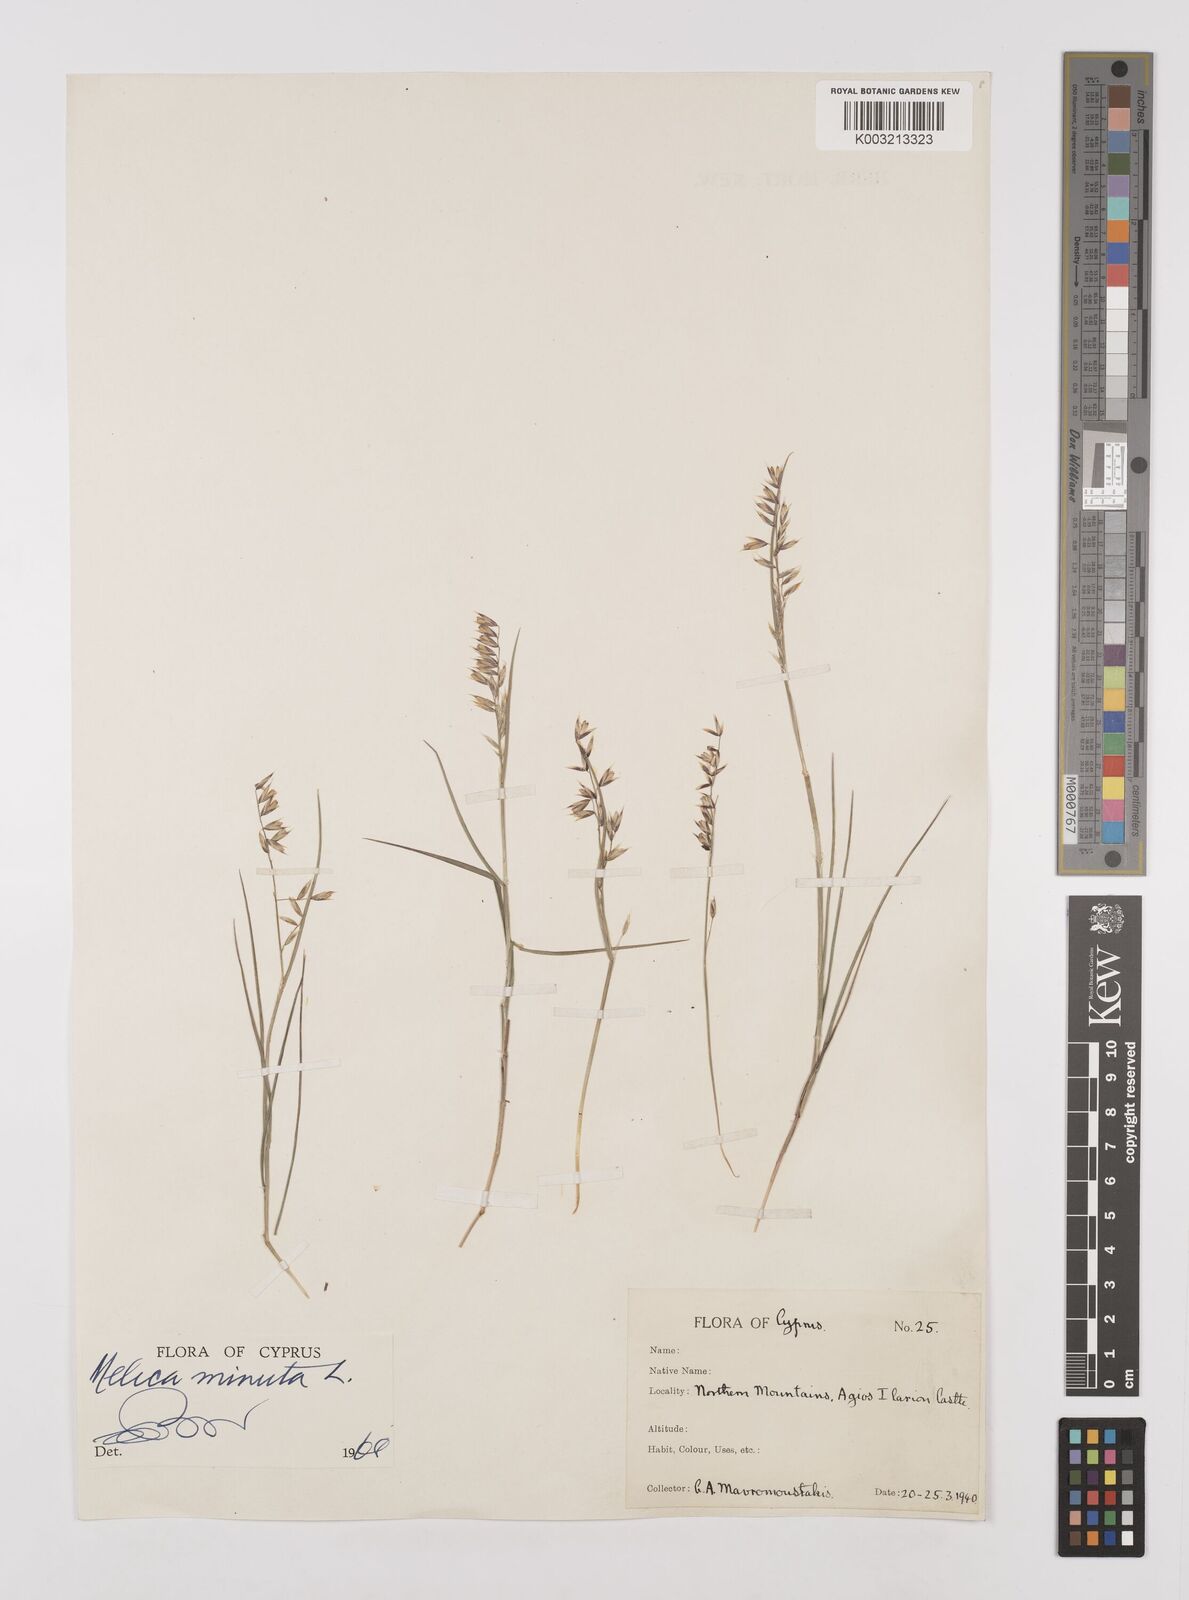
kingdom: Plantae
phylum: Tracheophyta
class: Liliopsida
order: Poales
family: Poaceae
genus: Melica
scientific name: Melica minuta
